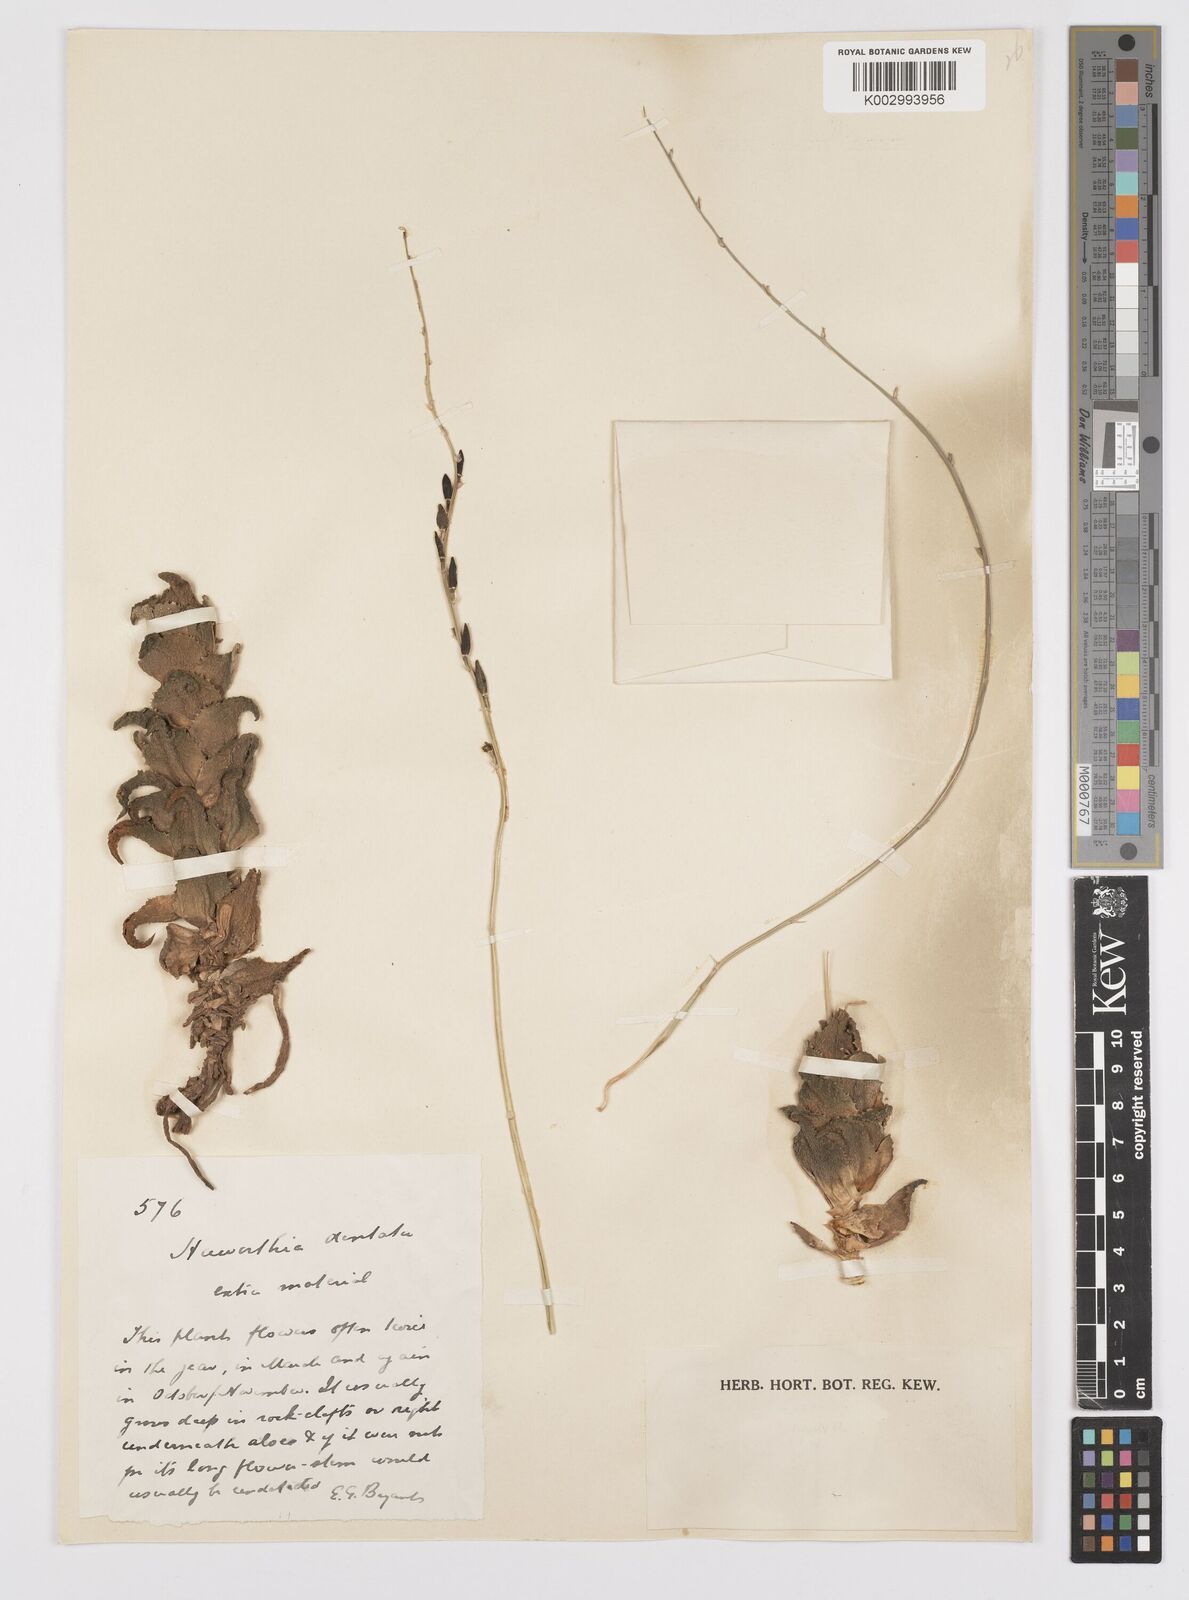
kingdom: Plantae
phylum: Tracheophyta
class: Liliopsida
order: Asparagales
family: Asphodelaceae
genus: Haworthia
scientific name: Haworthia floribunda
